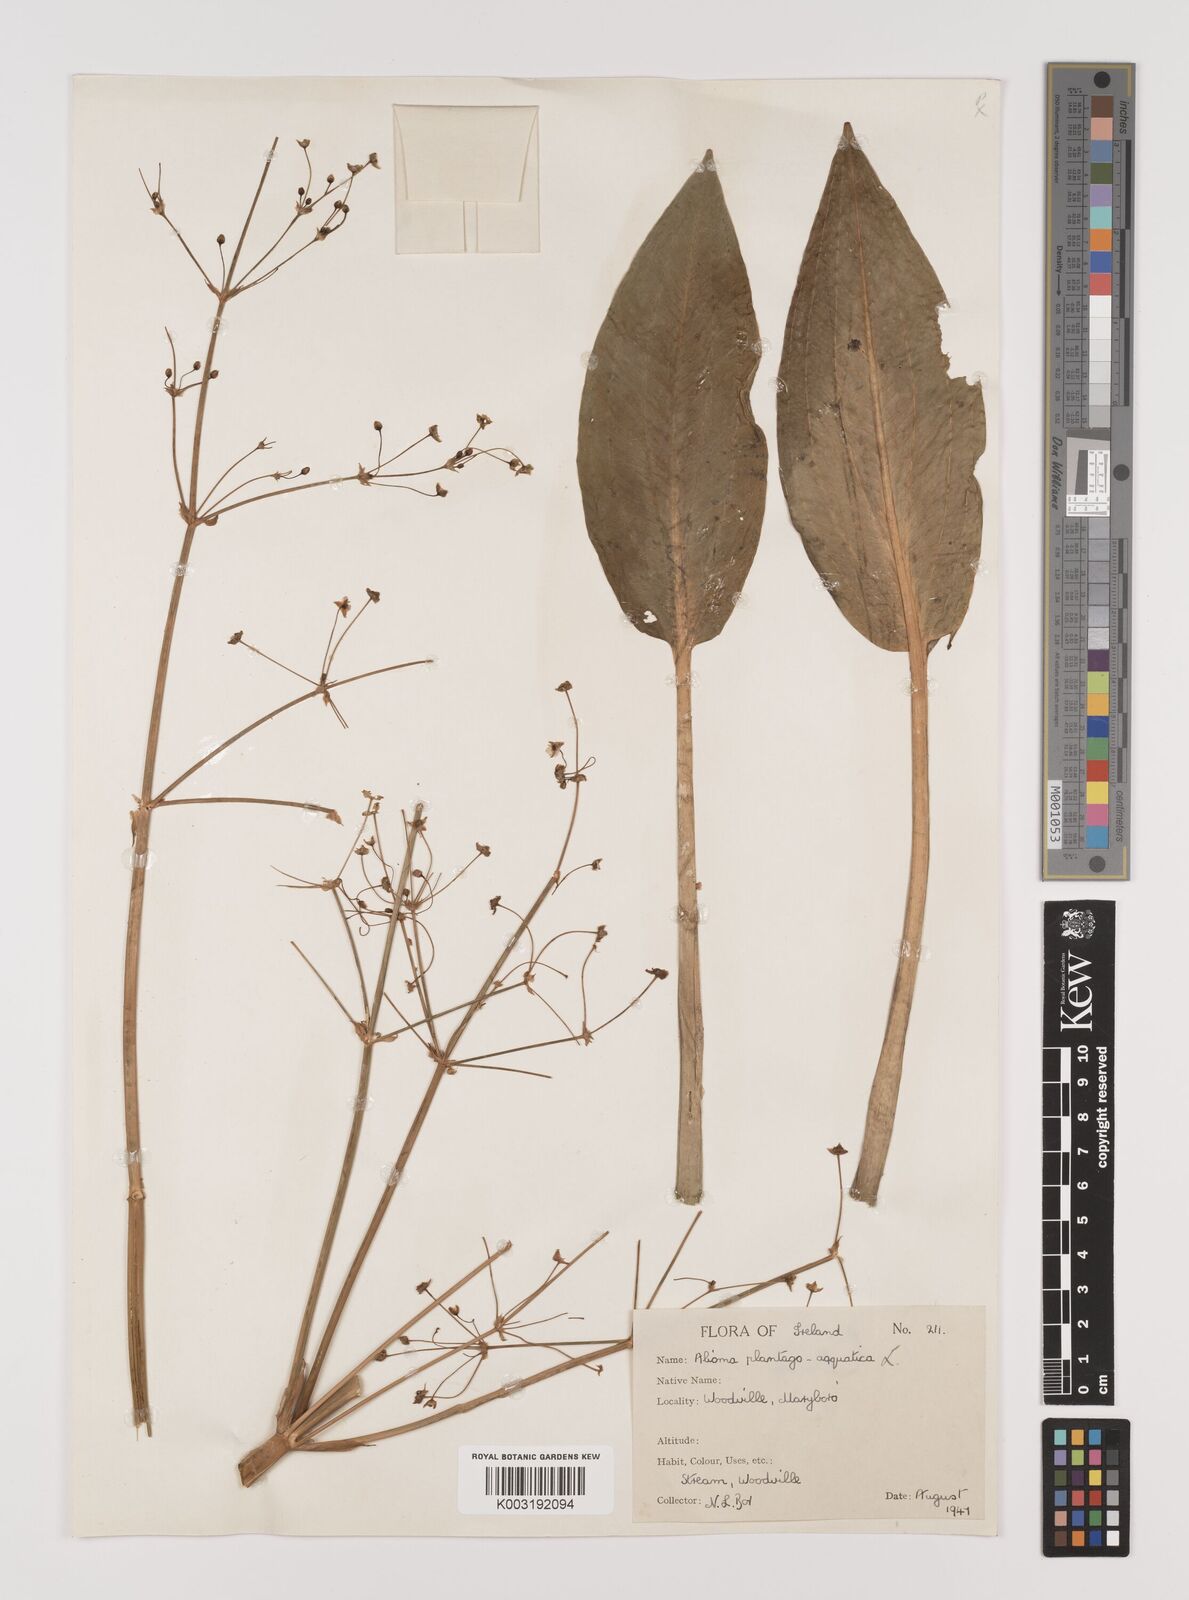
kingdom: Plantae
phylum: Tracheophyta
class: Liliopsida
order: Alismatales
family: Alismataceae
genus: Alisma
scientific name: Alisma plantago-aquatica
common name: Water-plantain
